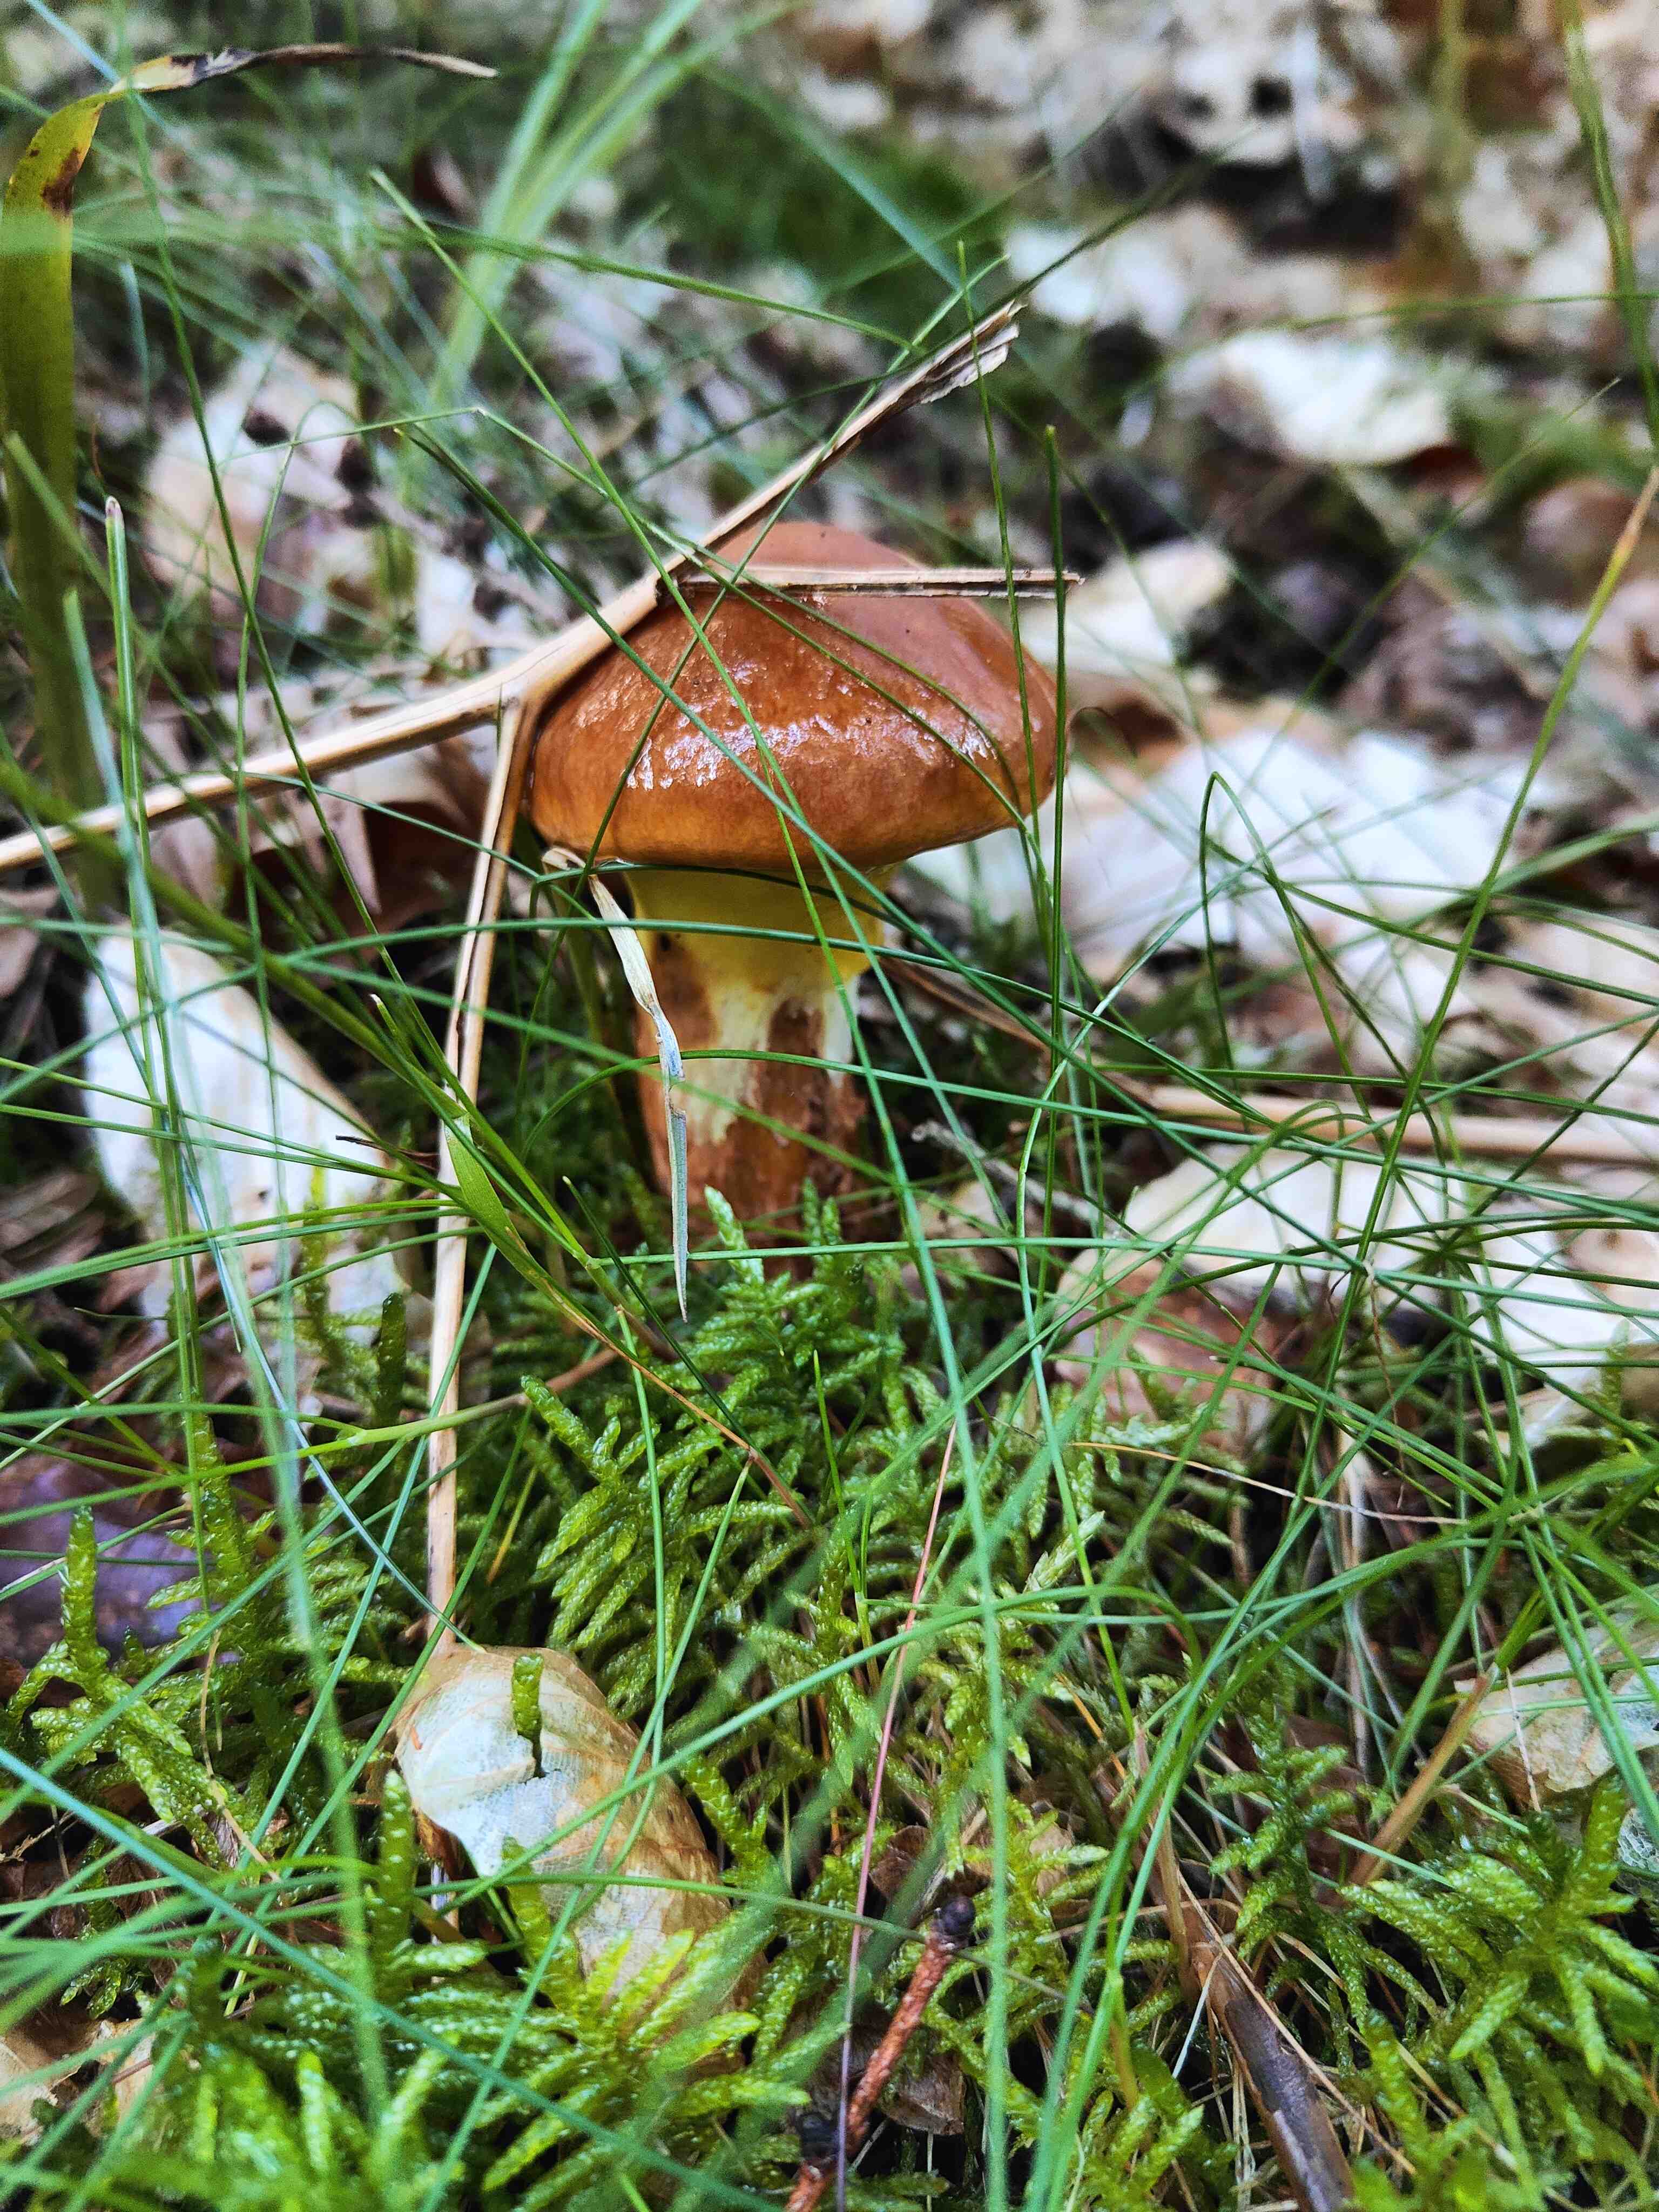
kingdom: Fungi
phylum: Basidiomycota
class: Agaricomycetes
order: Boletales
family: Suillaceae
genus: Suillus
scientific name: Suillus grevillei
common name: lærke-slimrørhat
